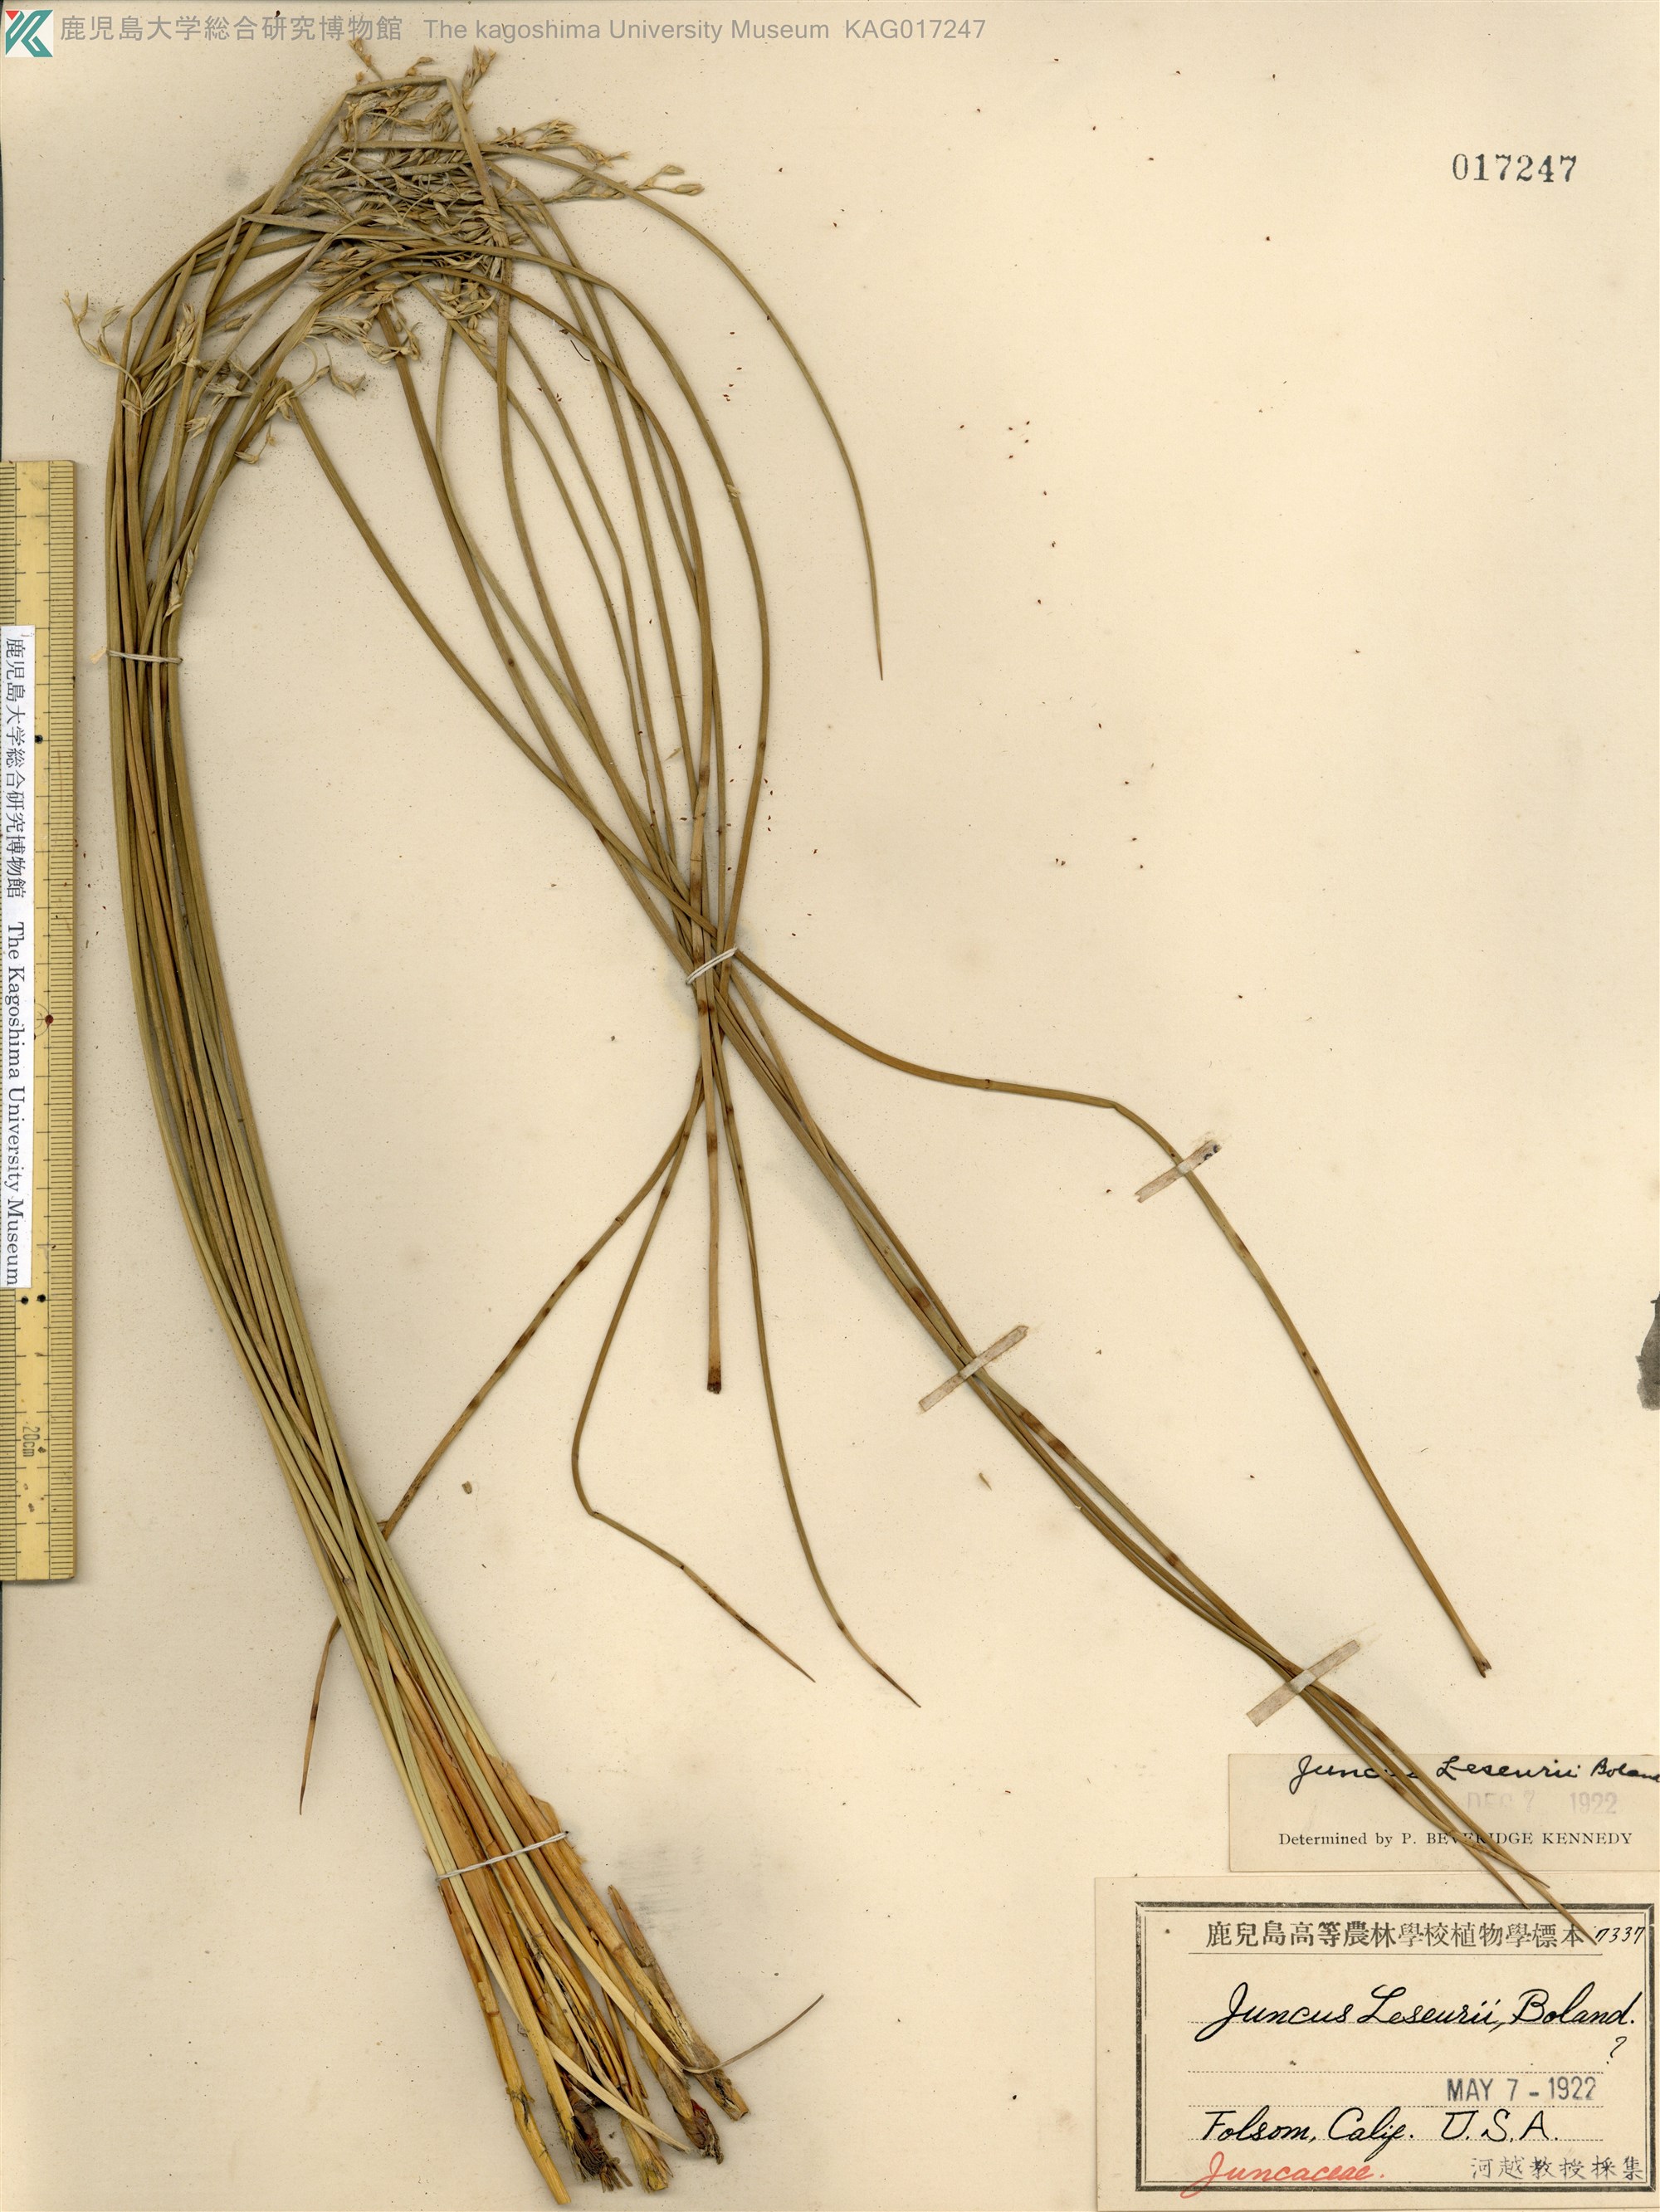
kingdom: Plantae
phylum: Tracheophyta
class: Liliopsida
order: Poales
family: Juncaceae
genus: Juncus
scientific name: Juncus leseurii
